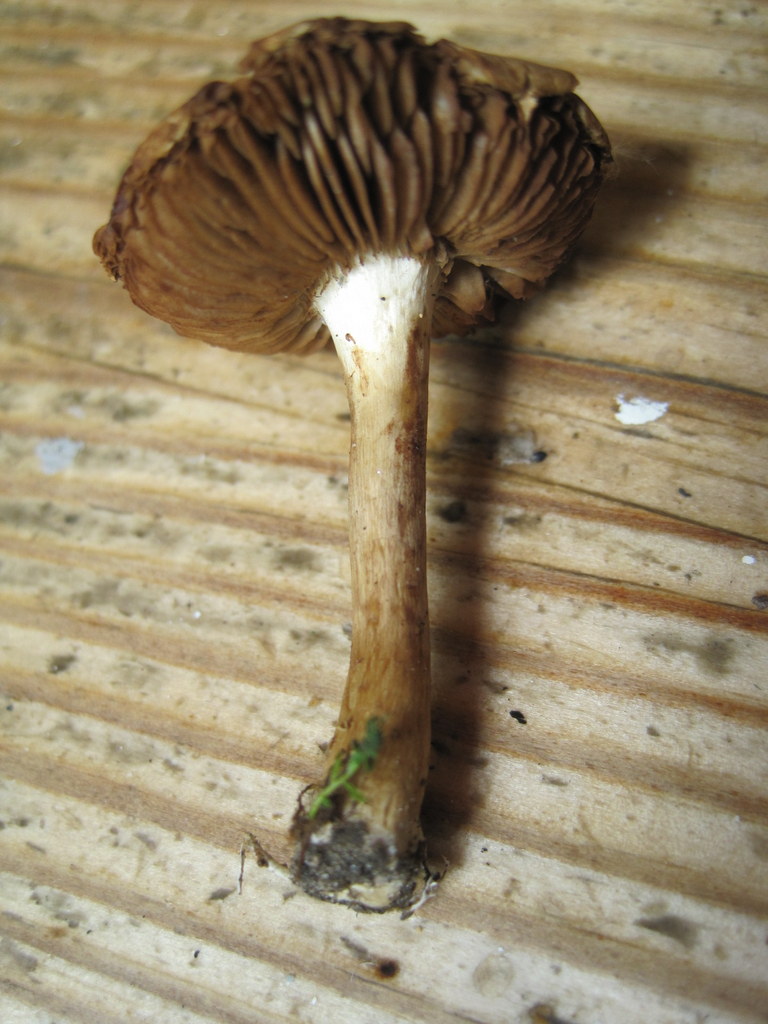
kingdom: Fungi
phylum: Basidiomycota
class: Agaricomycetes
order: Agaricales
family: Strophariaceae
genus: Agrocybe
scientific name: Agrocybe arvalis
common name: rodslående agerhat
